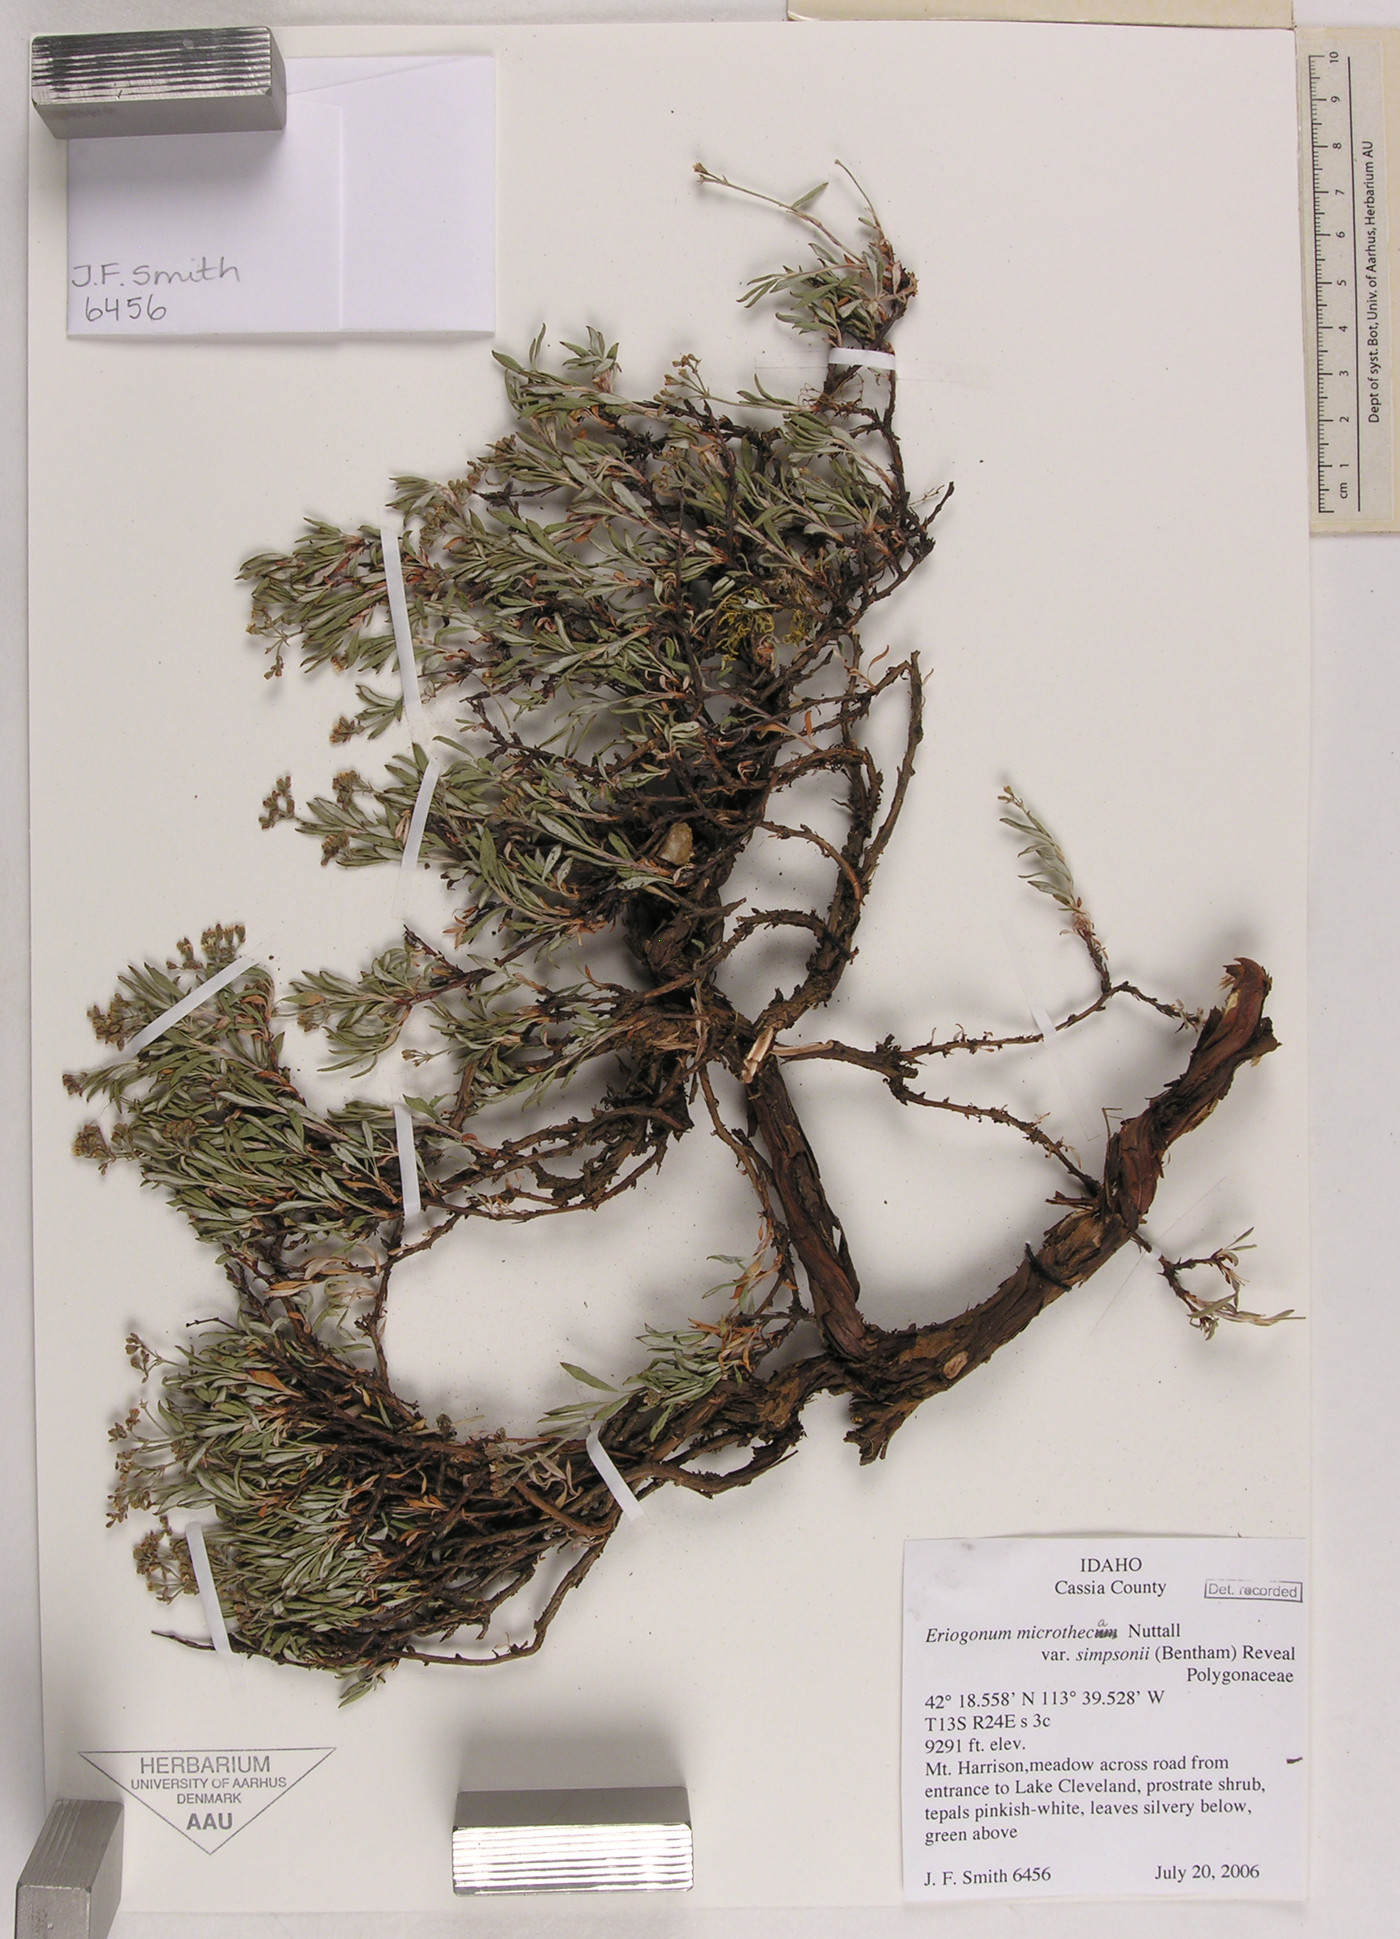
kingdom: Plantae
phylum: Tracheophyta
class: Magnoliopsida
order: Caryophyllales
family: Polygonaceae
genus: Eriogonum
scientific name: Eriogonum microtheca
